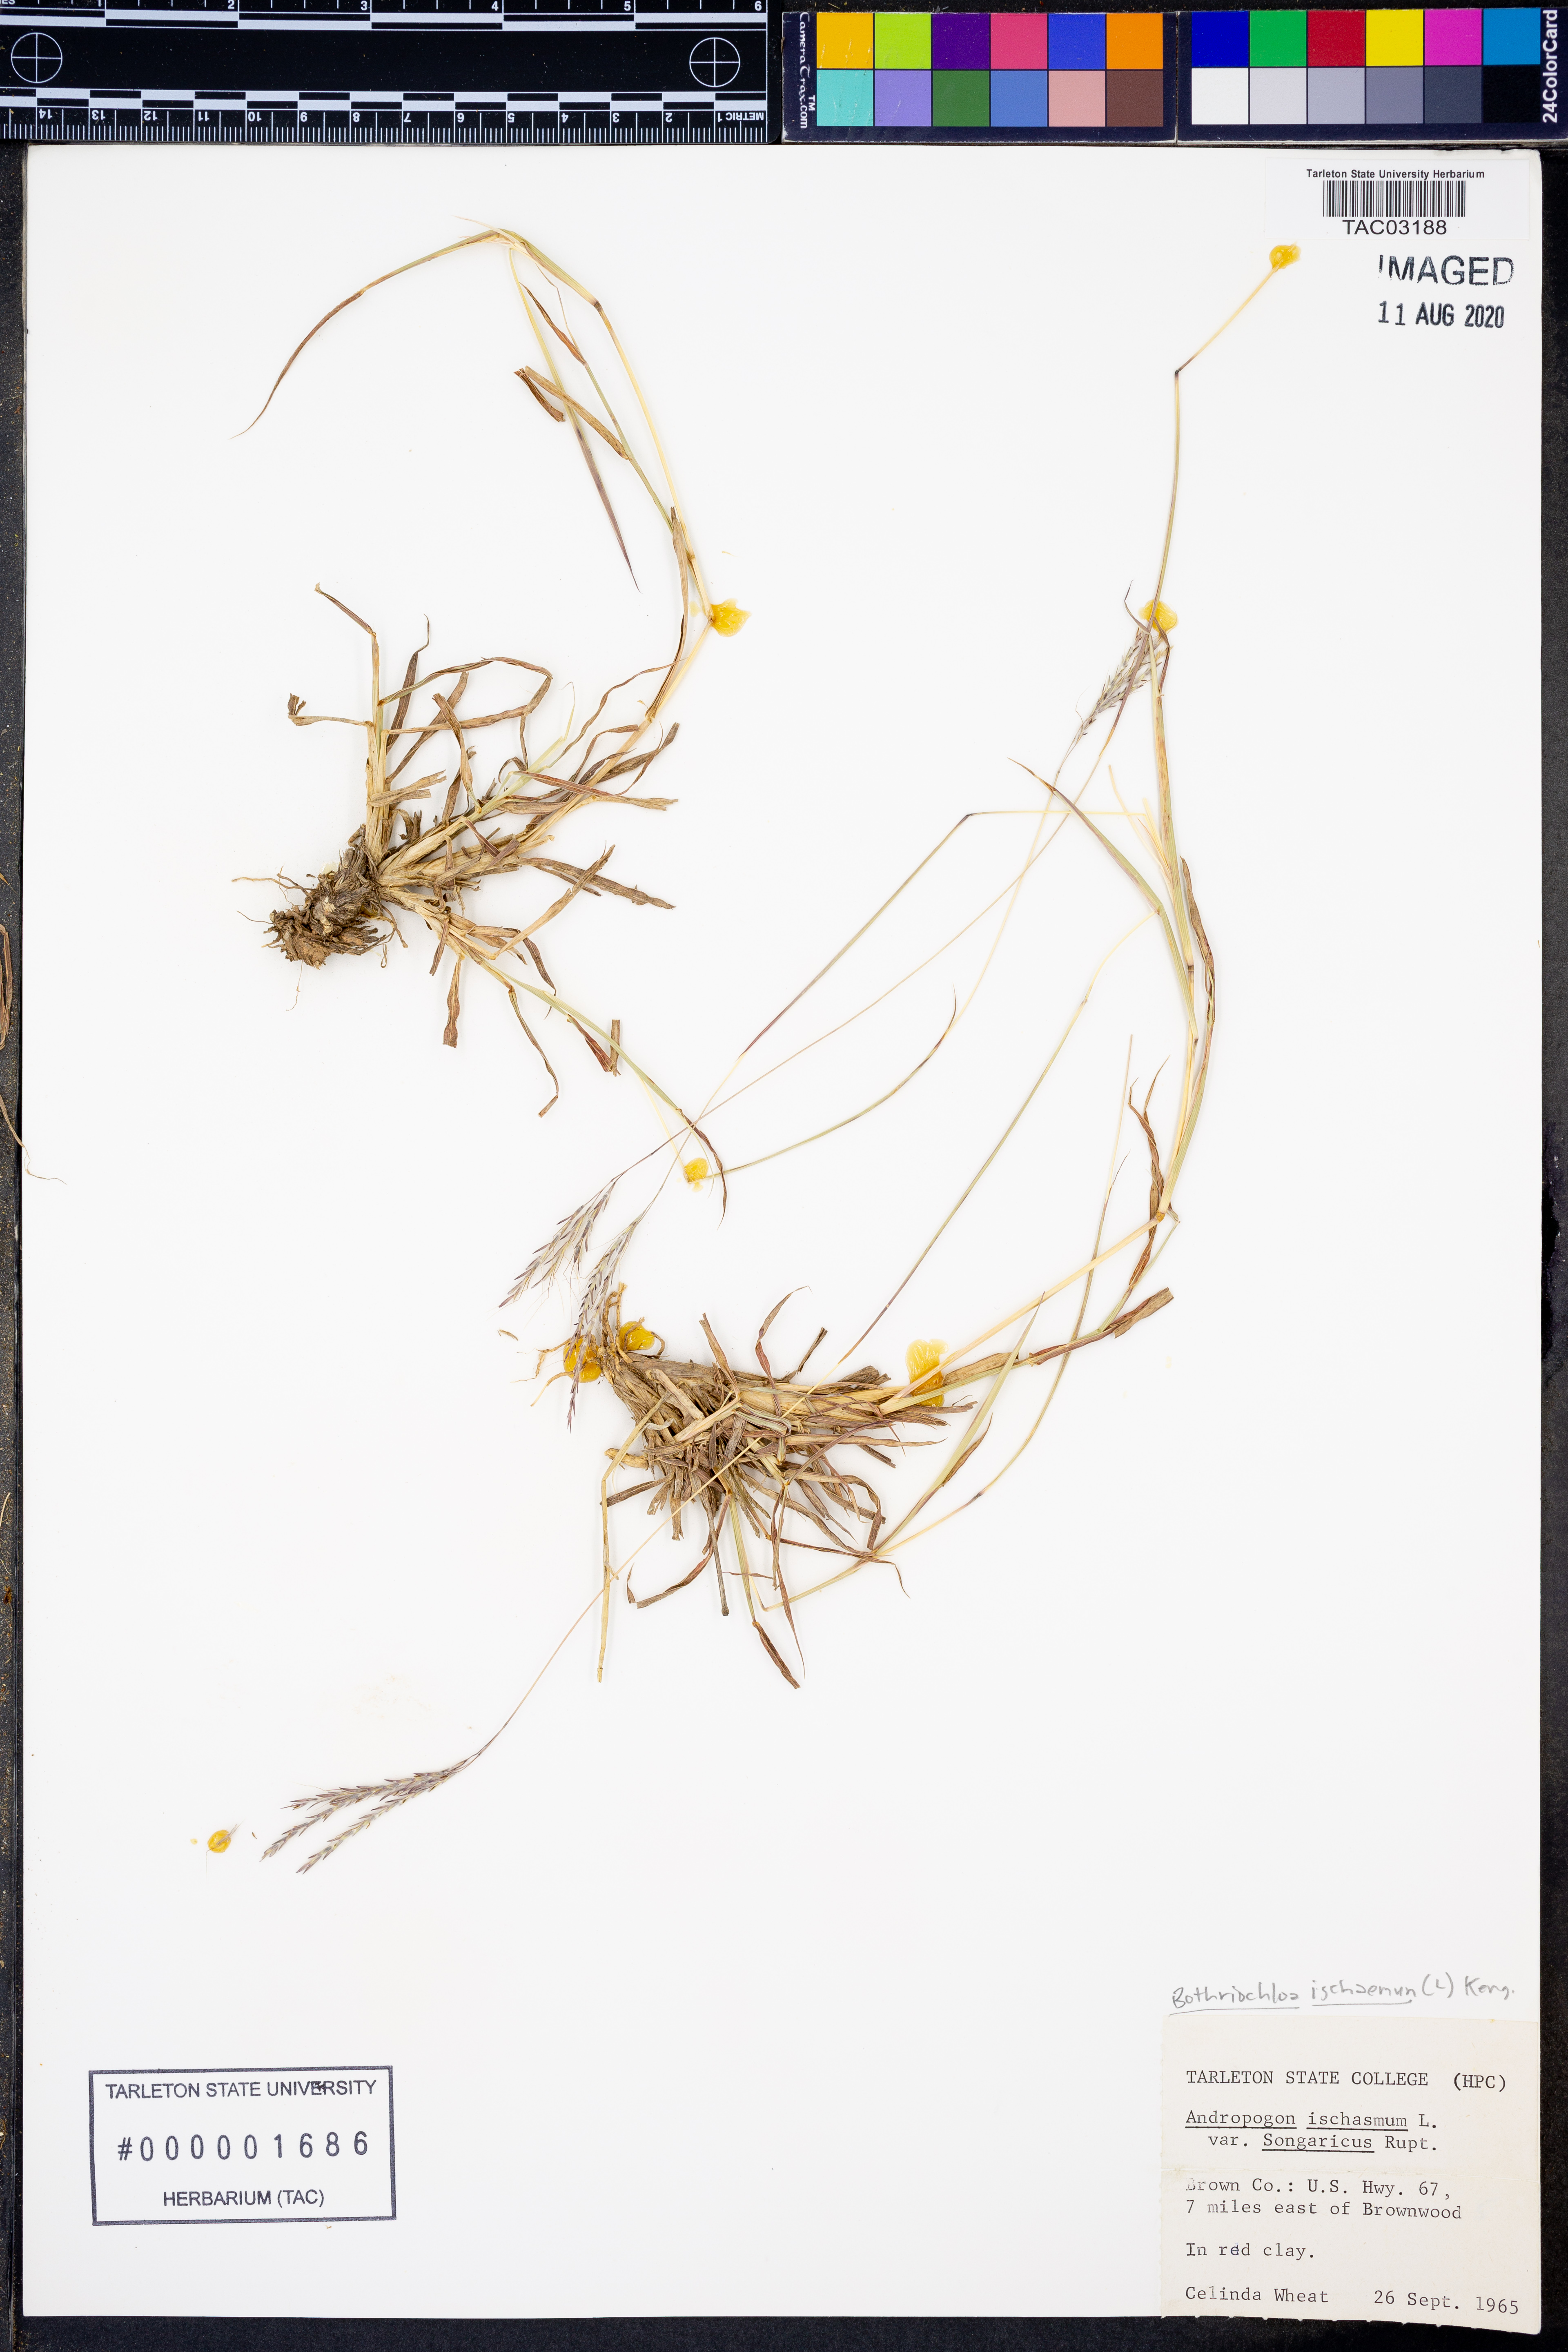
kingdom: Plantae
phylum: Tracheophyta
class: Liliopsida
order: Poales
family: Poaceae
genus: Bothriochloa
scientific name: Bothriochloa ischaemum
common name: Yellow bluestem
